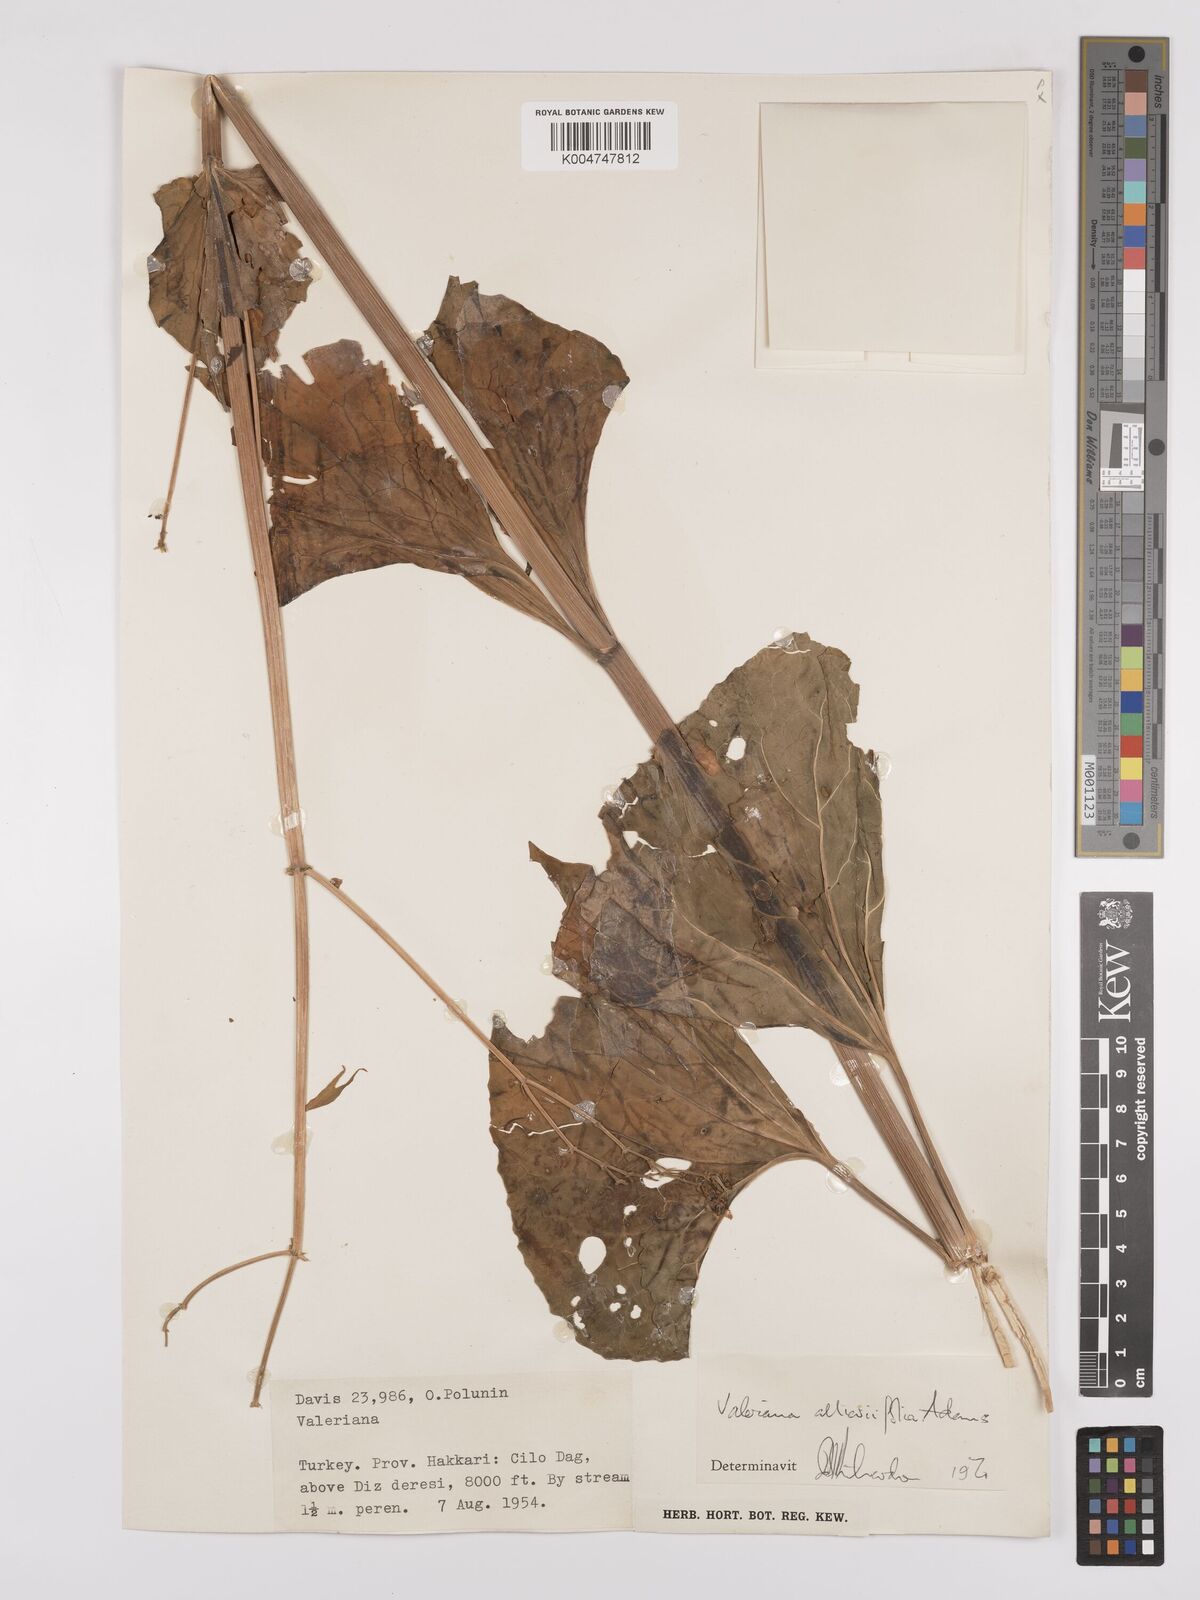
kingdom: Plantae
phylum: Tracheophyta
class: Magnoliopsida
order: Dipsacales
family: Caprifoliaceae
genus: Valeriana
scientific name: Valeriana
